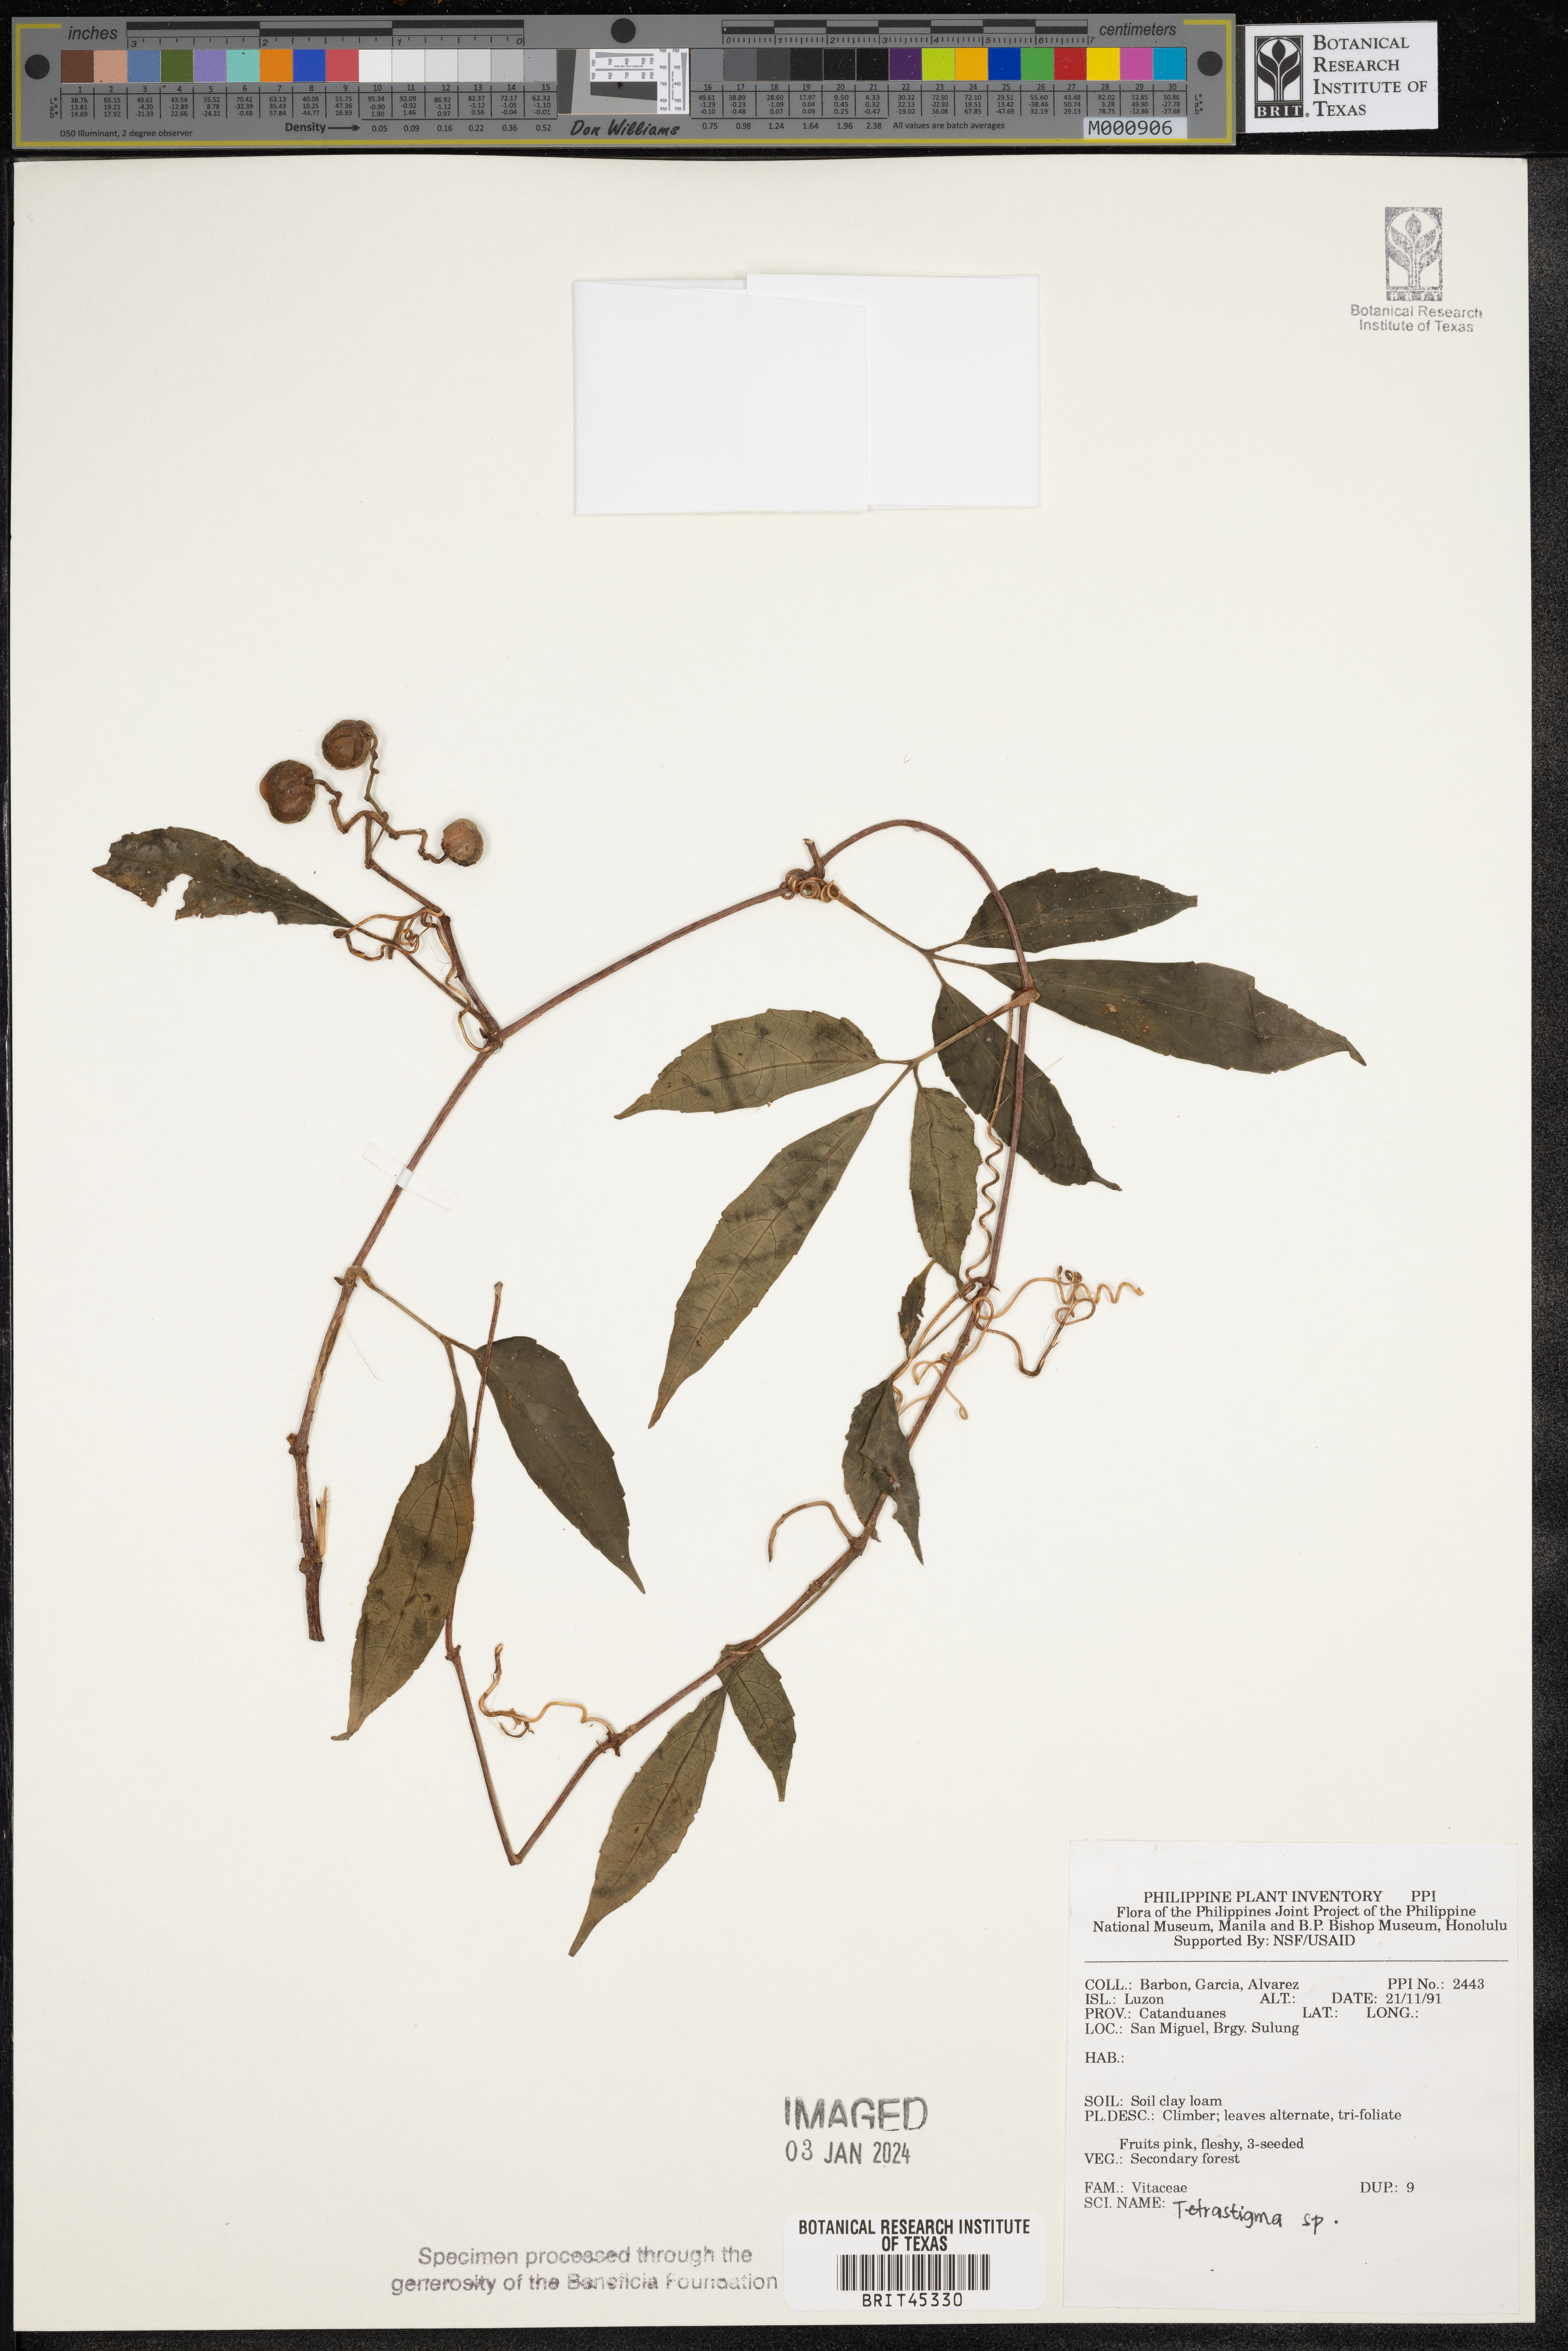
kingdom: Plantae
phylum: Tracheophyta
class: Magnoliopsida
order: Vitales
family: Vitaceae
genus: Tetrastigma
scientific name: Tetrastigma
